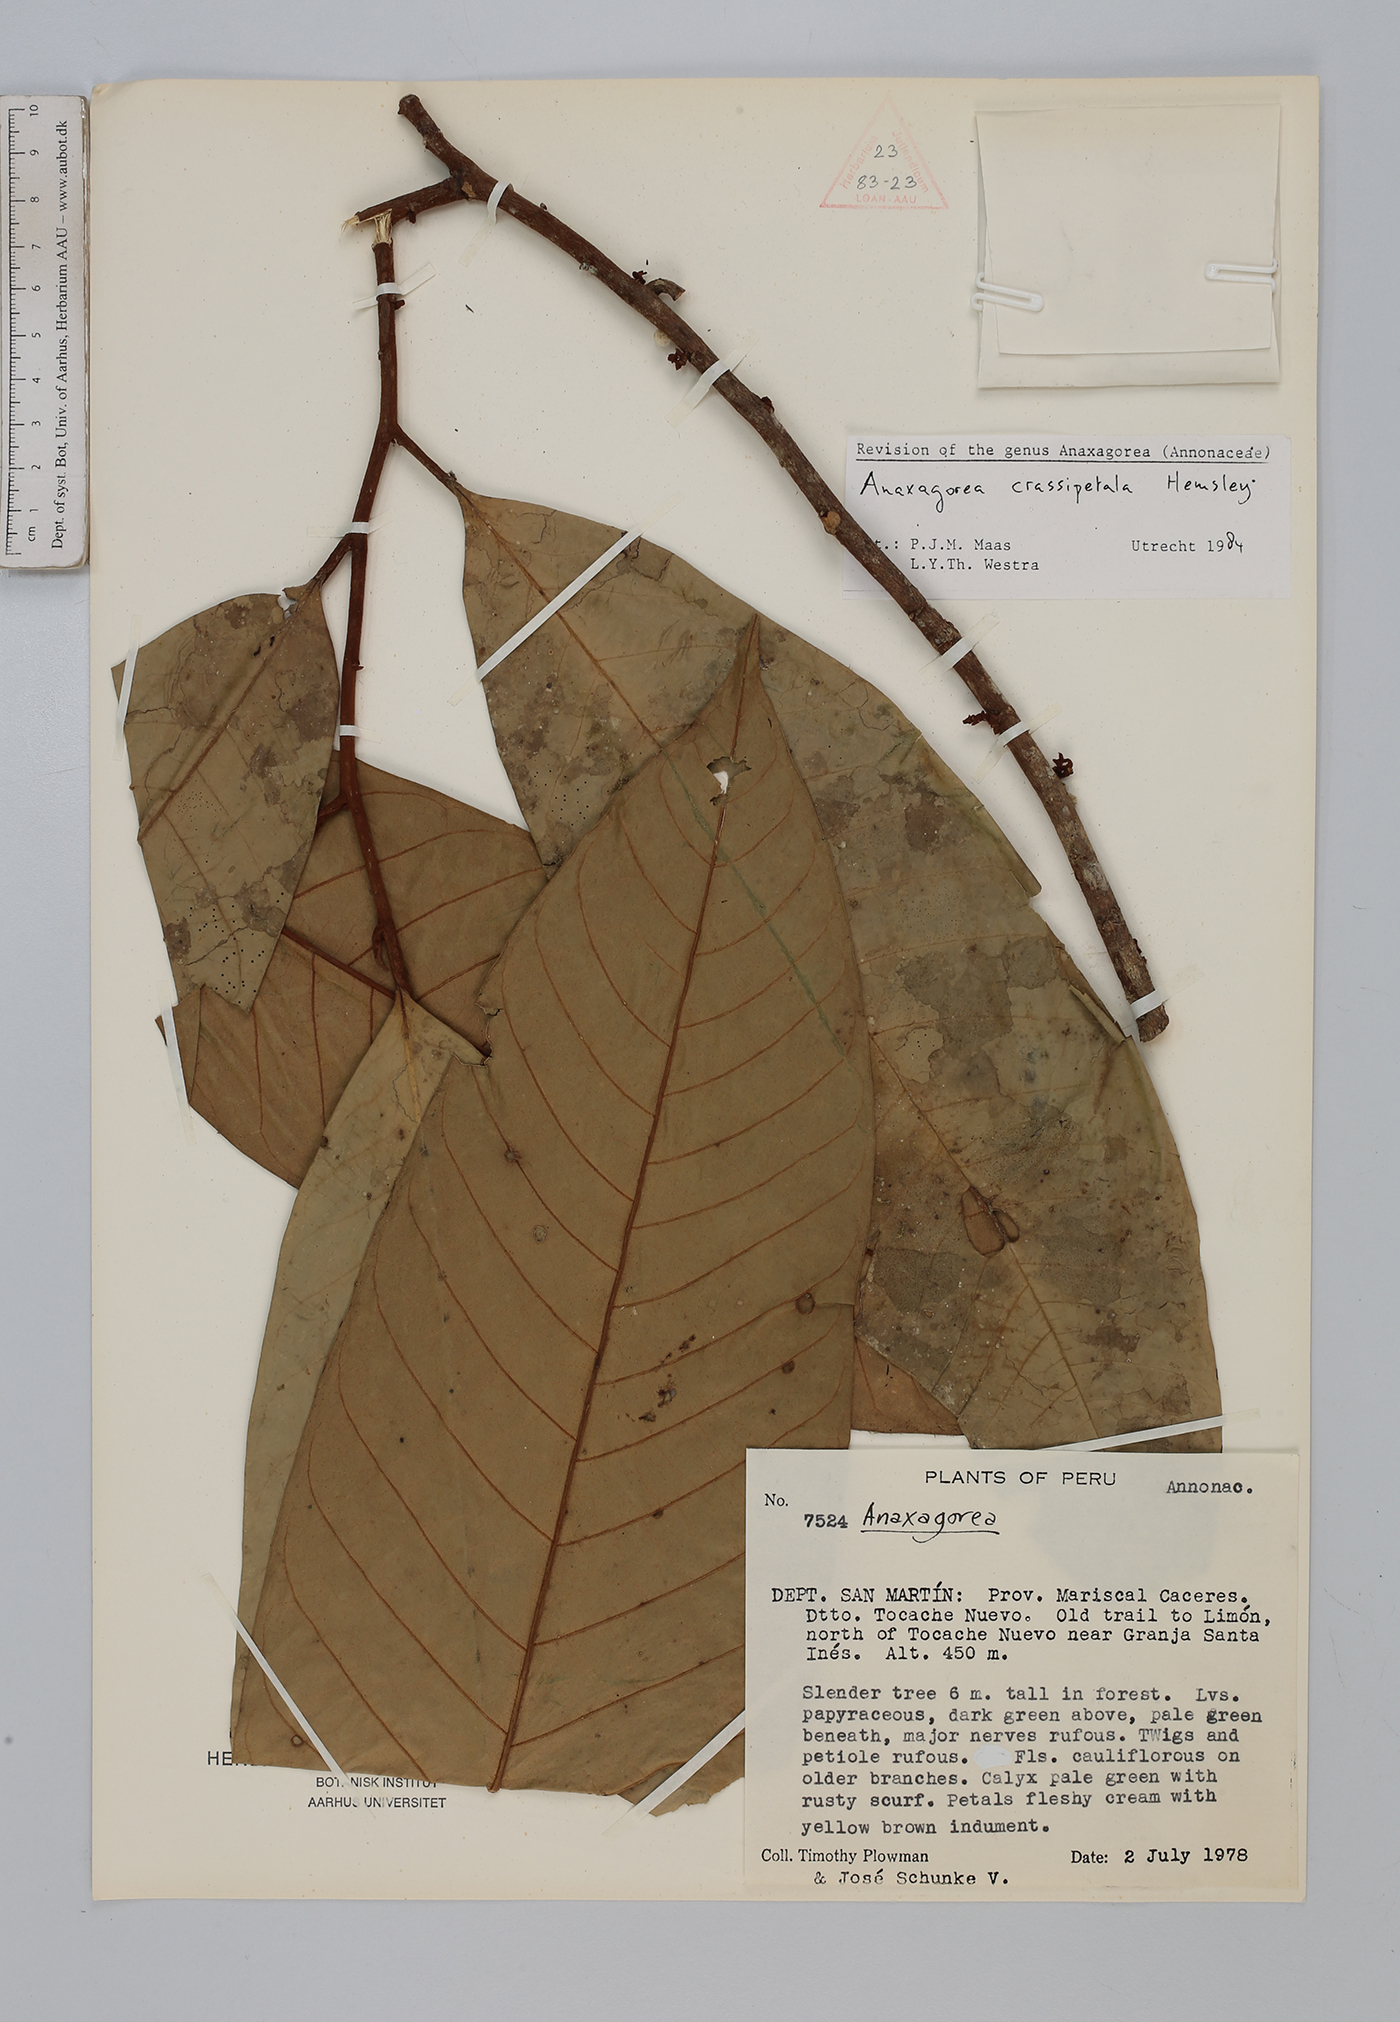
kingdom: Plantae
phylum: Tracheophyta
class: Magnoliopsida
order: Magnoliales
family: Annonaceae
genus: Anaxagorea
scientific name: Anaxagorea crassipetala
